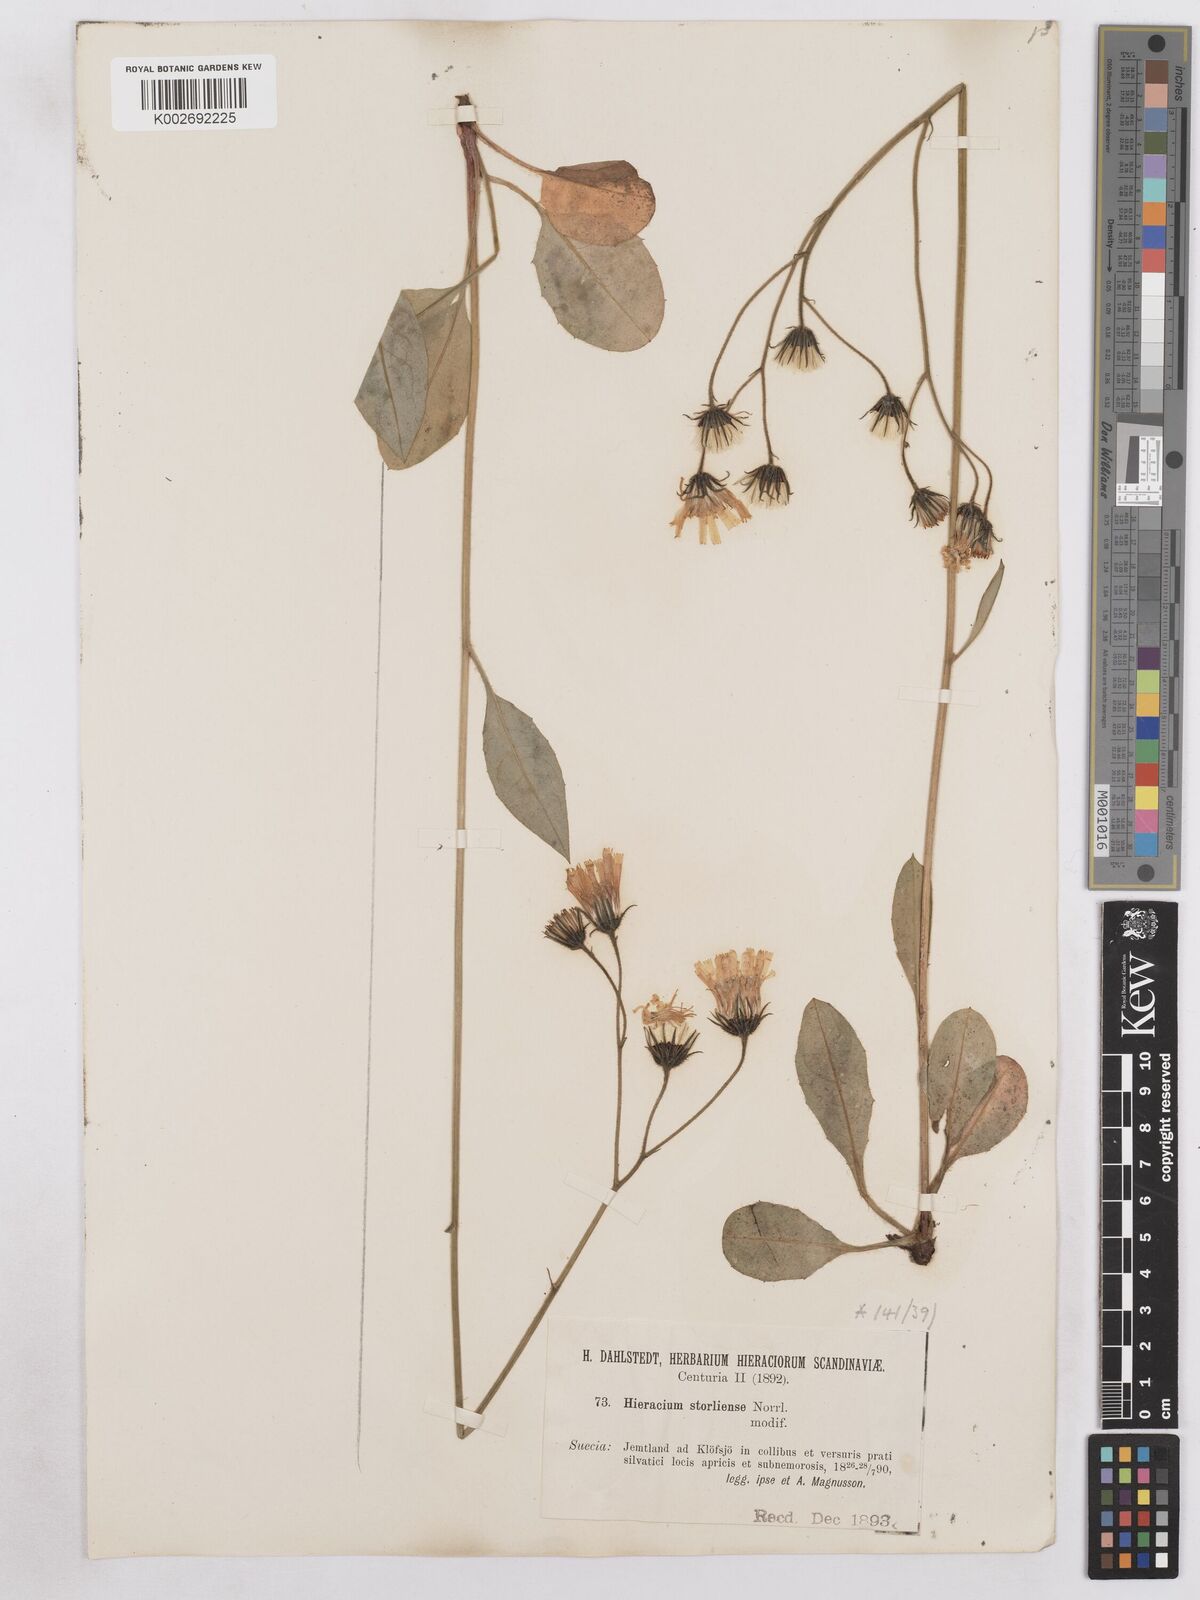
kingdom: Plantae
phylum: Tracheophyta
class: Magnoliopsida
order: Asterales
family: Asteraceae
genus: Hieracium
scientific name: Hieracium diaphanoides
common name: Fine-bracted hawkweed
